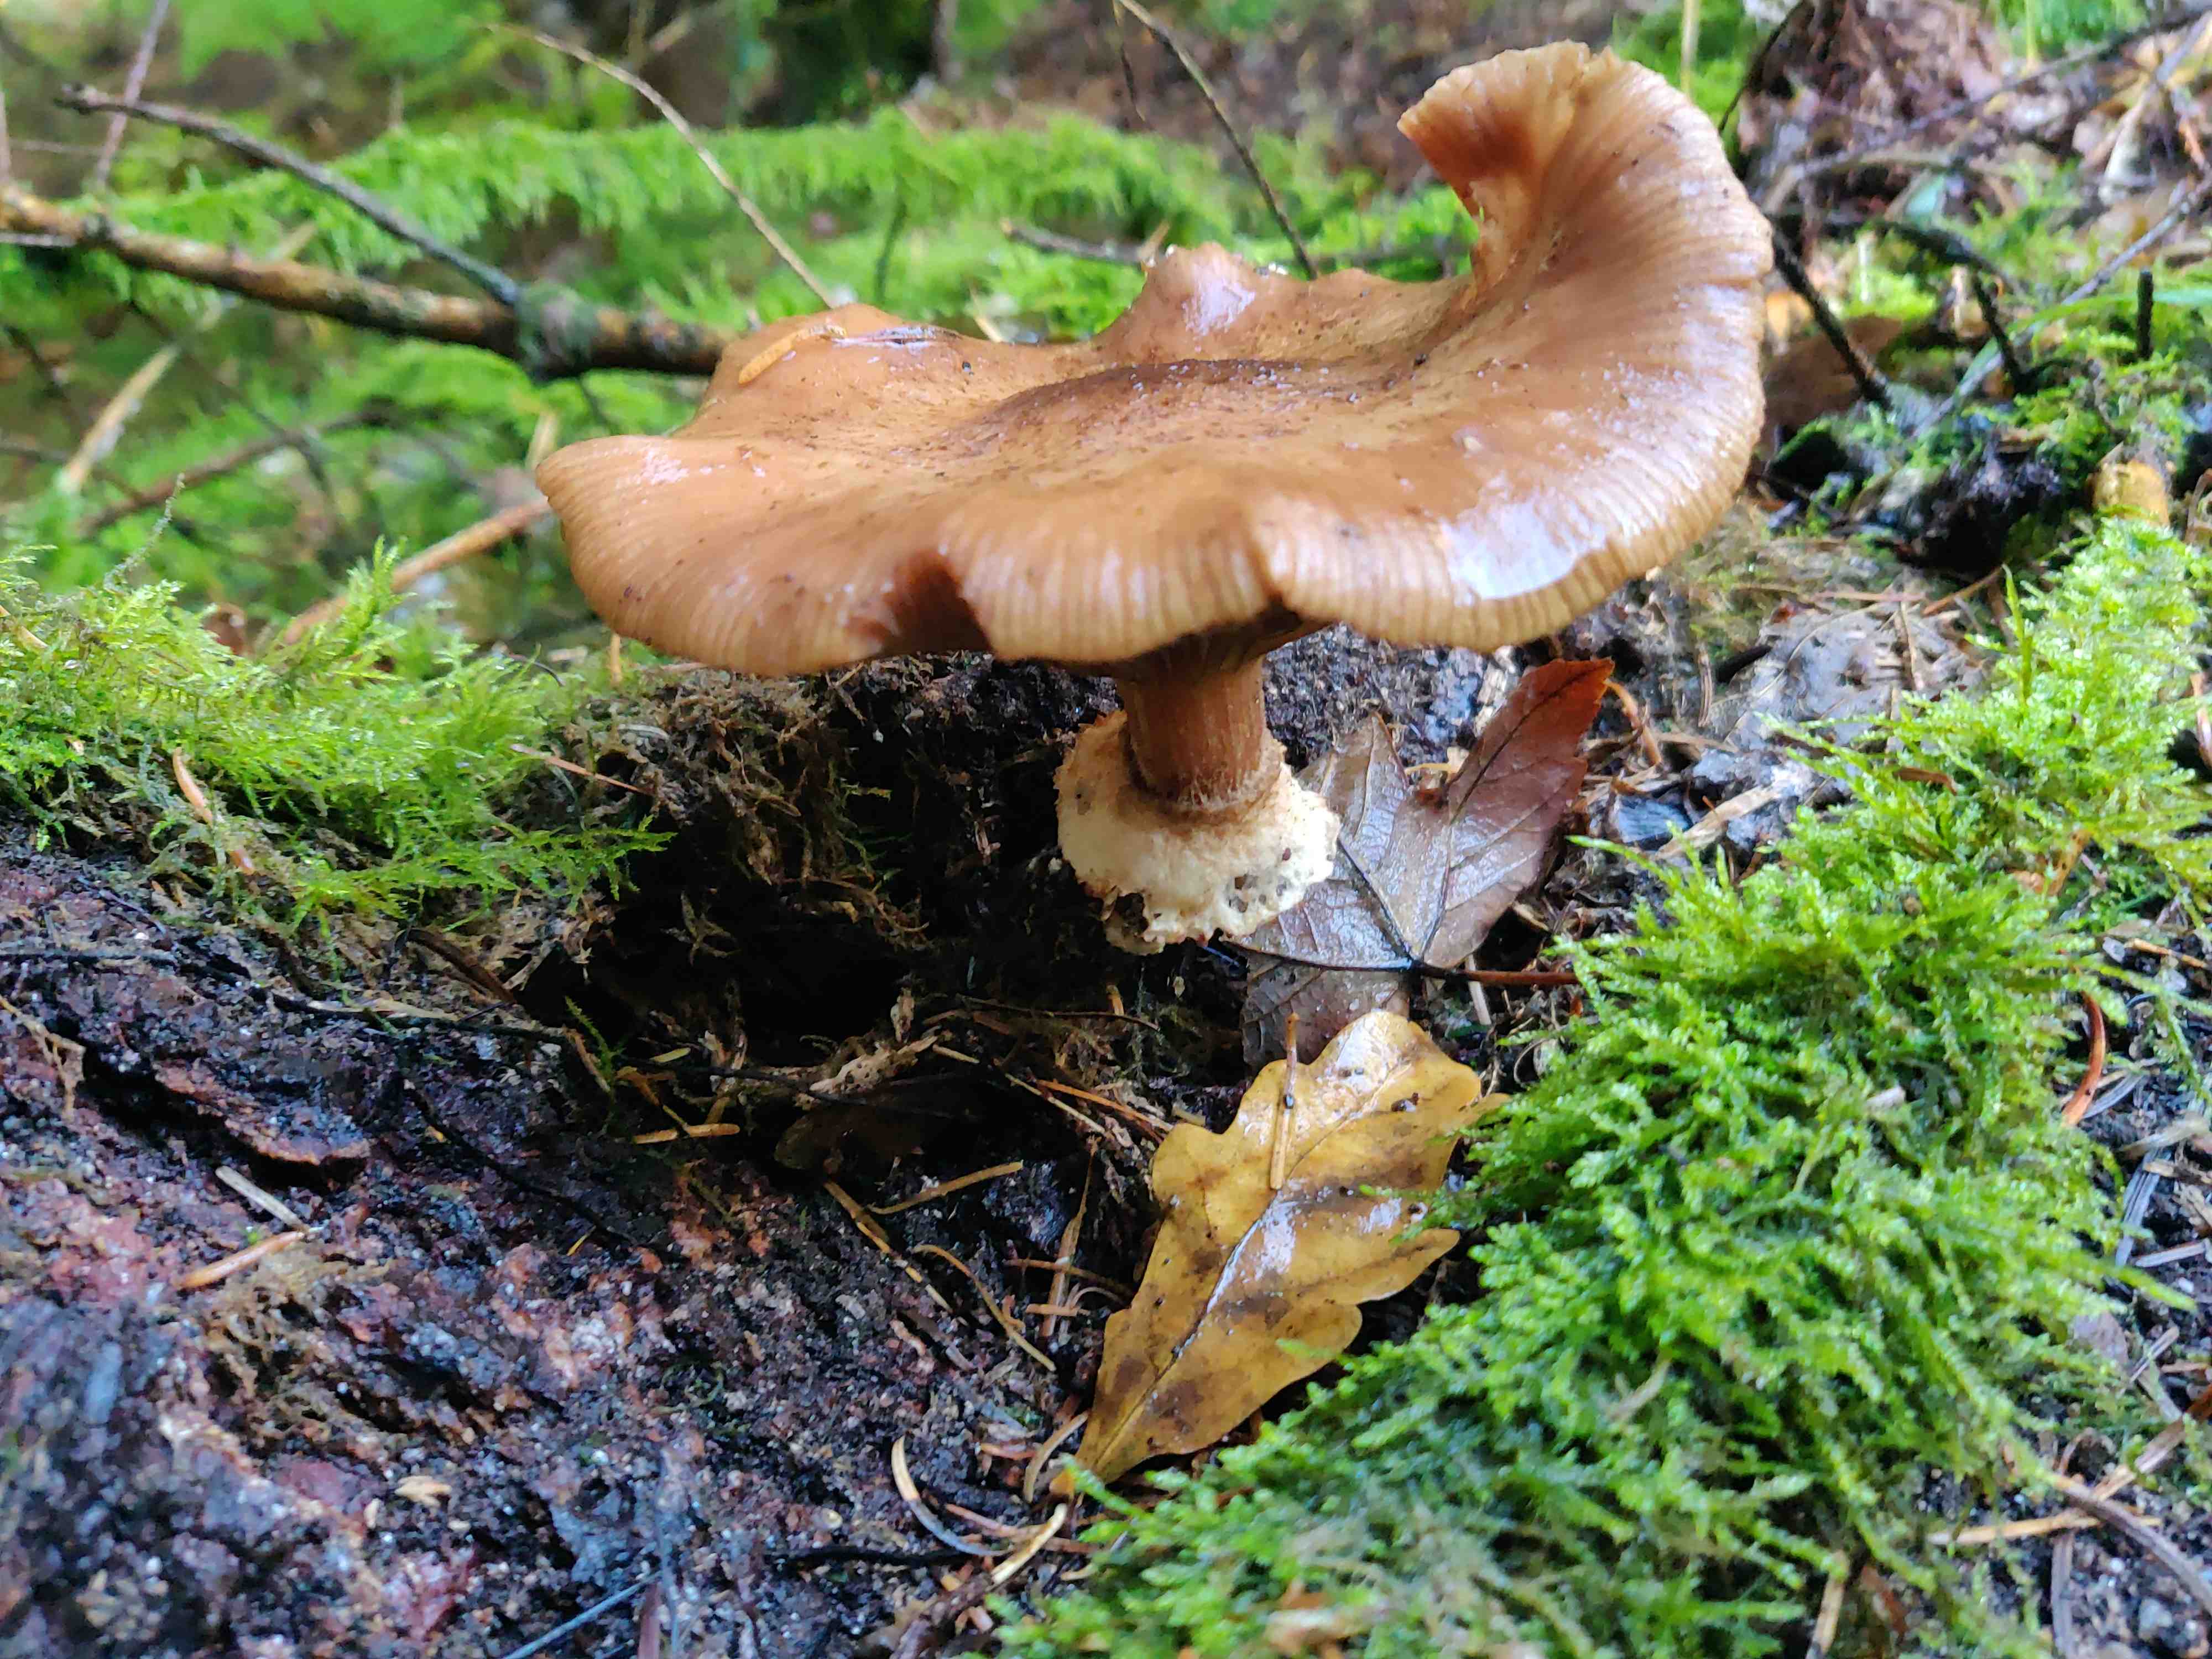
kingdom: Fungi
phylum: Basidiomycota
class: Agaricomycetes
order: Agaricales
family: Physalacriaceae
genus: Armillaria
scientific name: Armillaria
